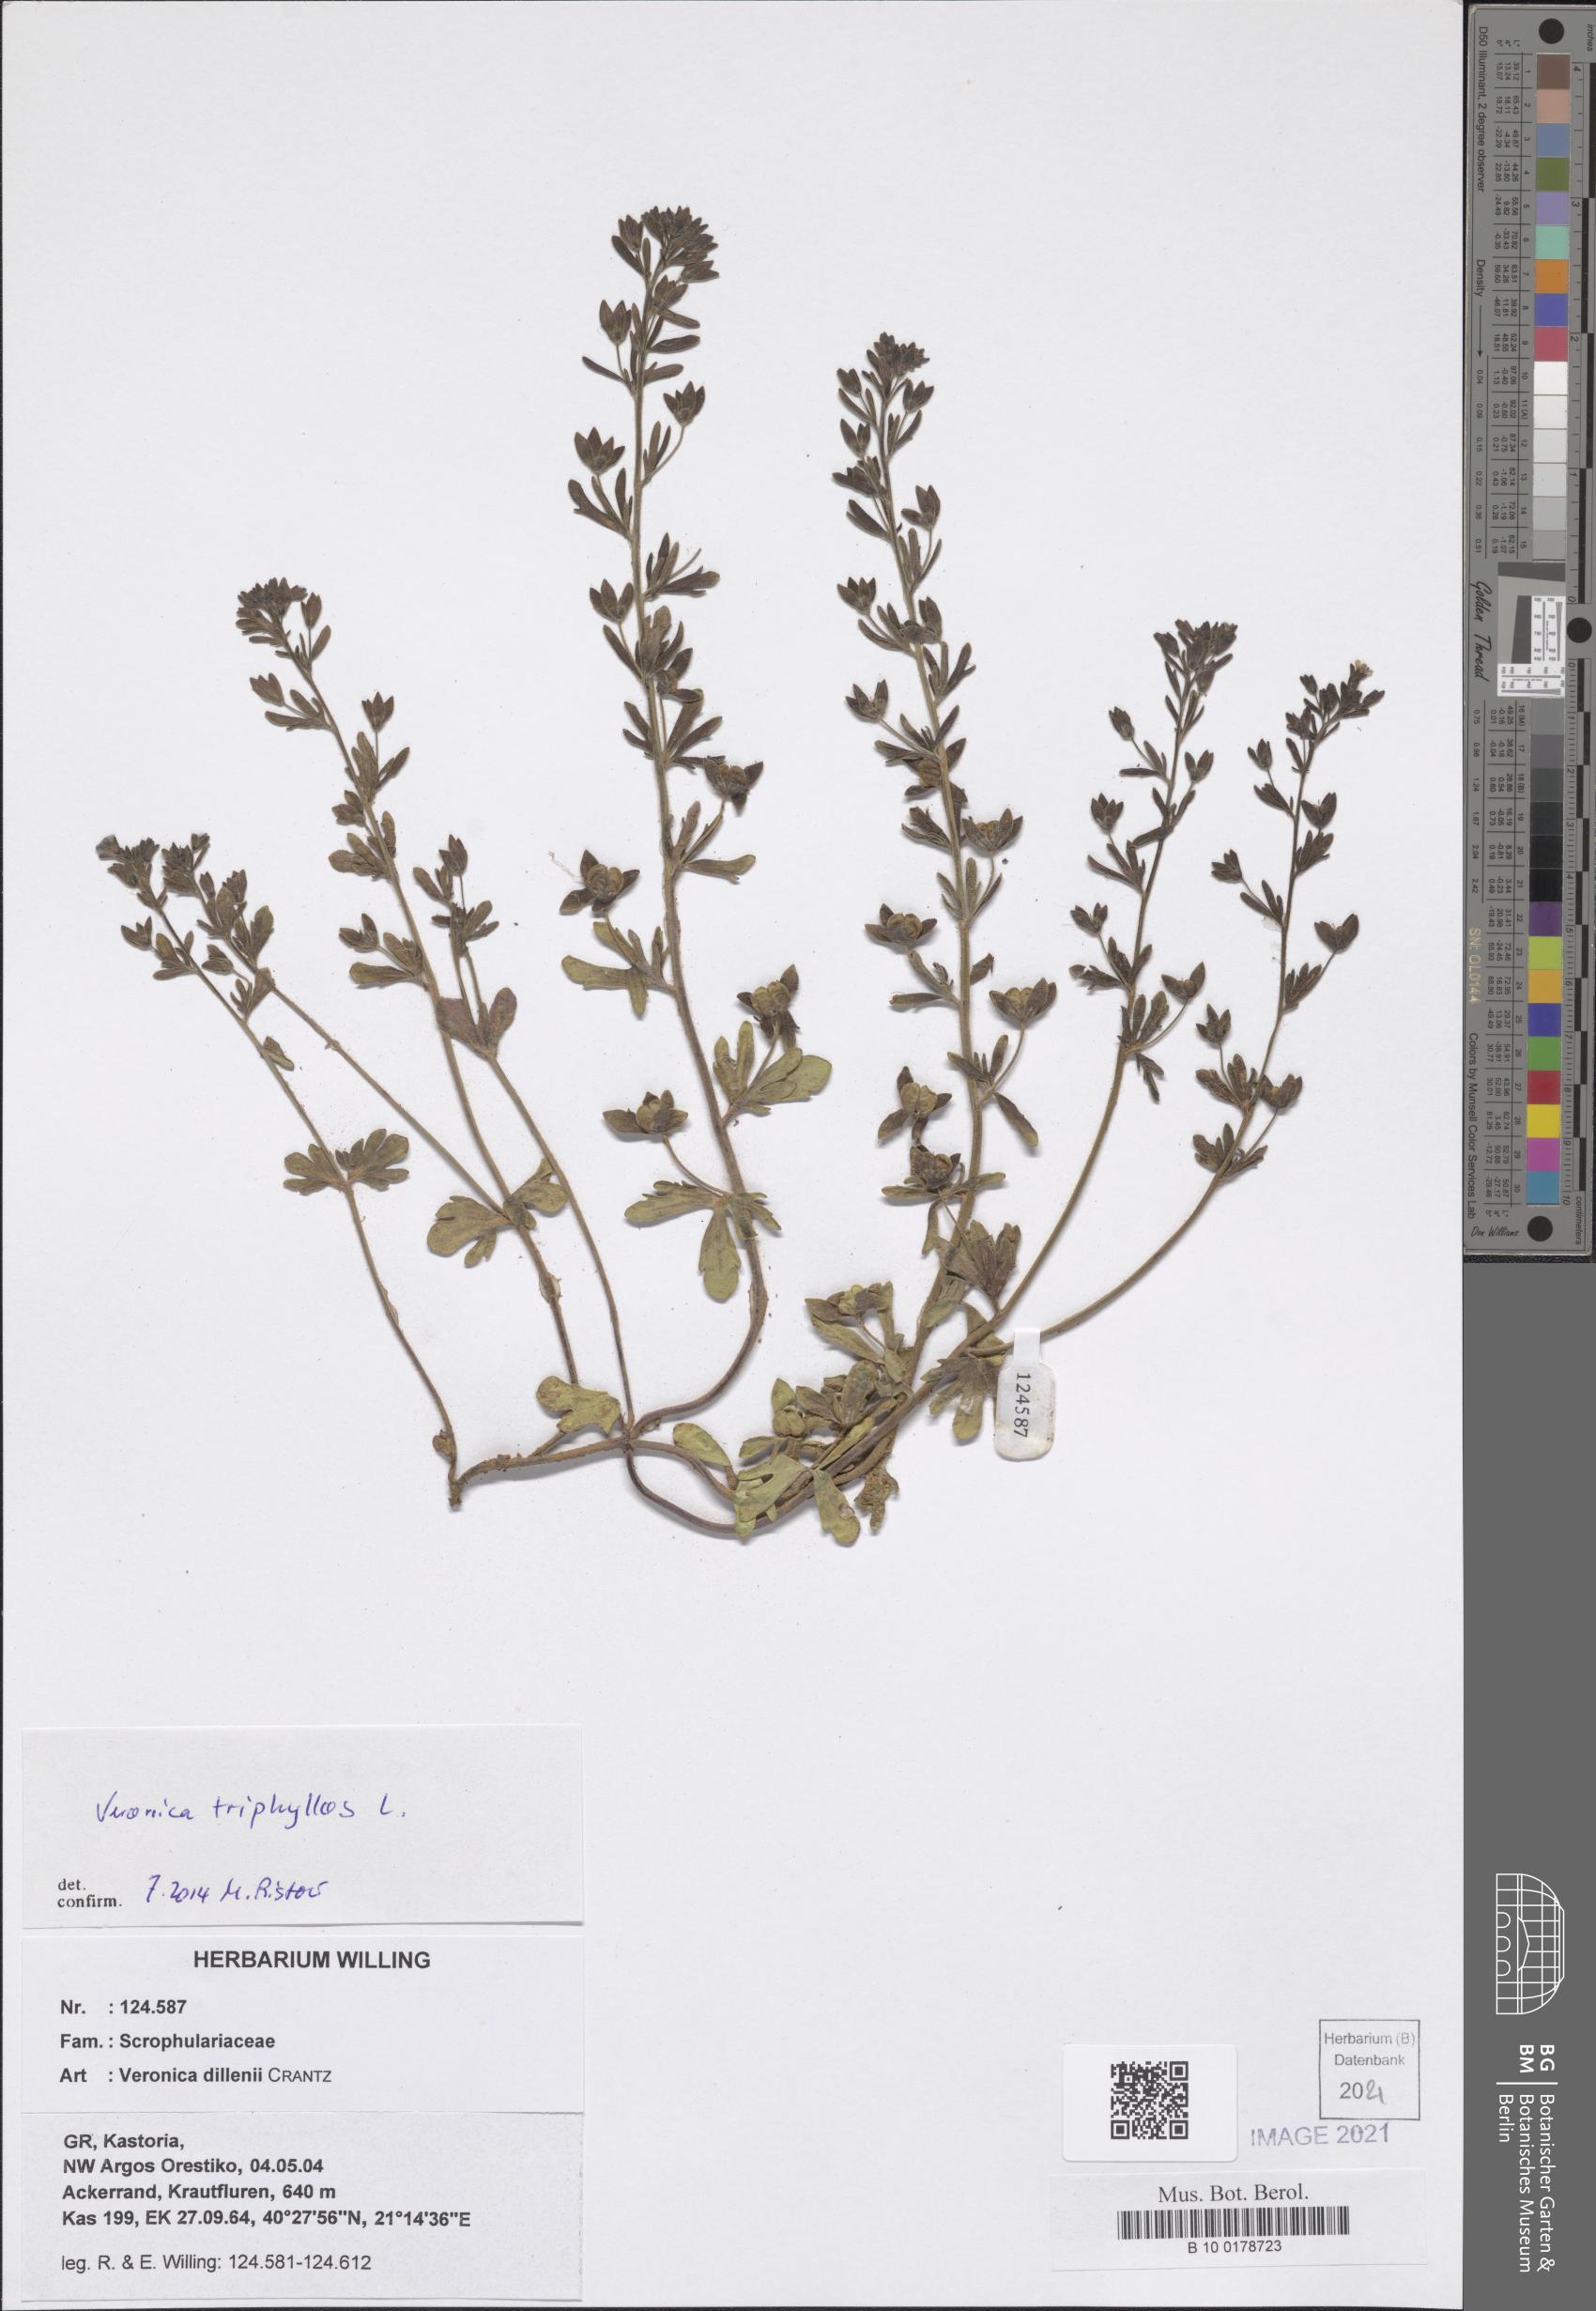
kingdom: Plantae
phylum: Tracheophyta
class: Magnoliopsida
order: Lamiales
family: Plantaginaceae
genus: Veronica
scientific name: Veronica triphyllos
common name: Fingered speedwell
